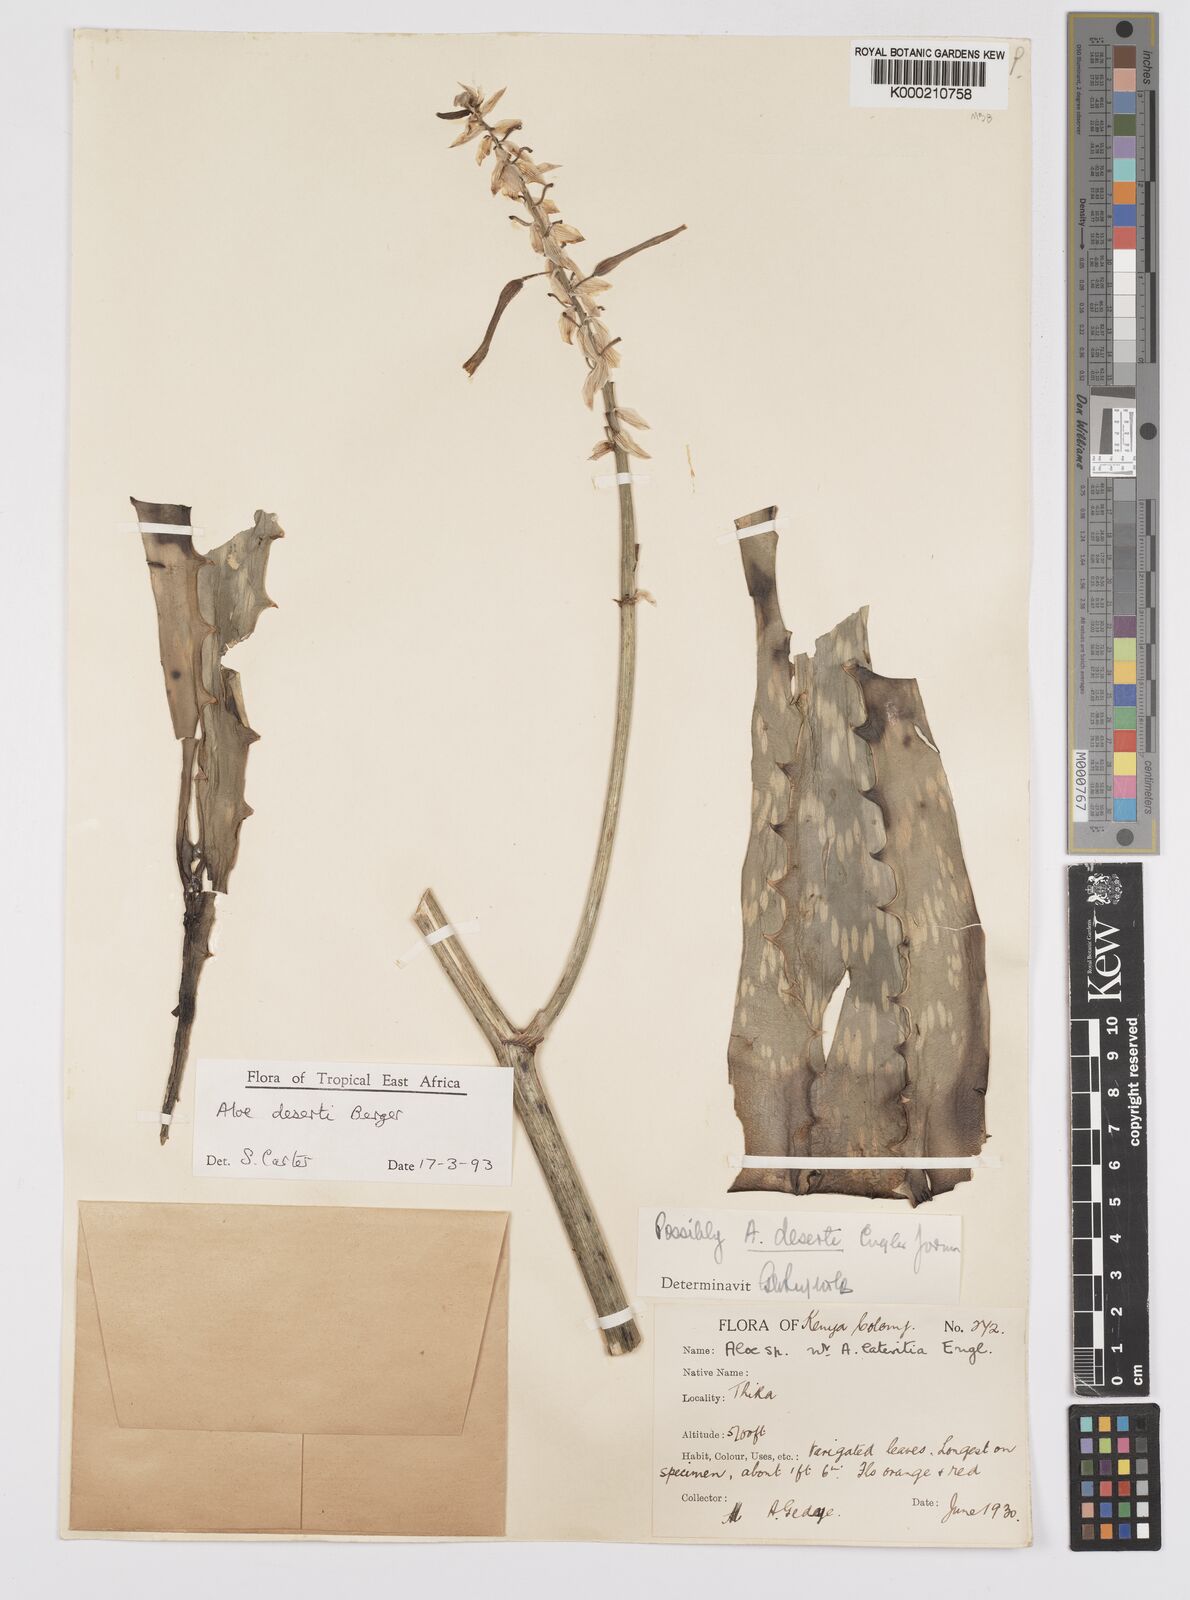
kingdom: Plantae
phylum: Tracheophyta
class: Liliopsida
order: Asparagales
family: Asphodelaceae
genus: Aloe
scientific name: Aloe deserti
